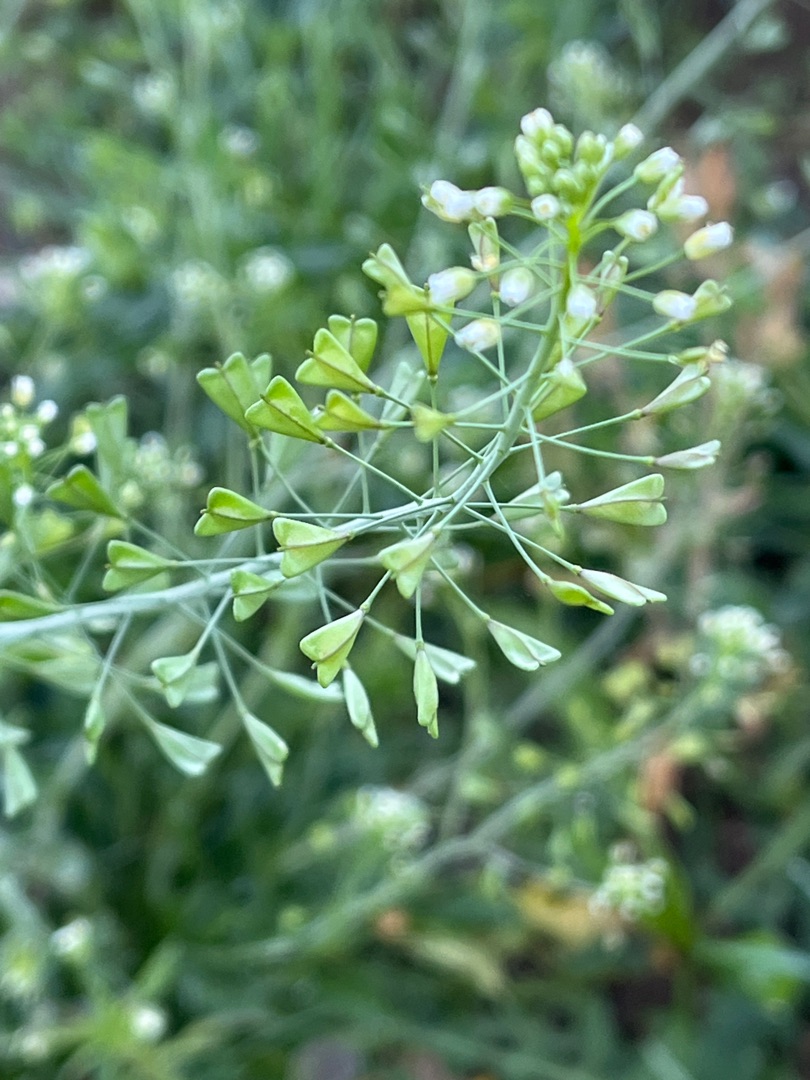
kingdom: Plantae
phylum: Tracheophyta
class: Magnoliopsida
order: Brassicales
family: Brassicaceae
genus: Capsella
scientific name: Capsella bursa-pastoris
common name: Hyrdetaske
